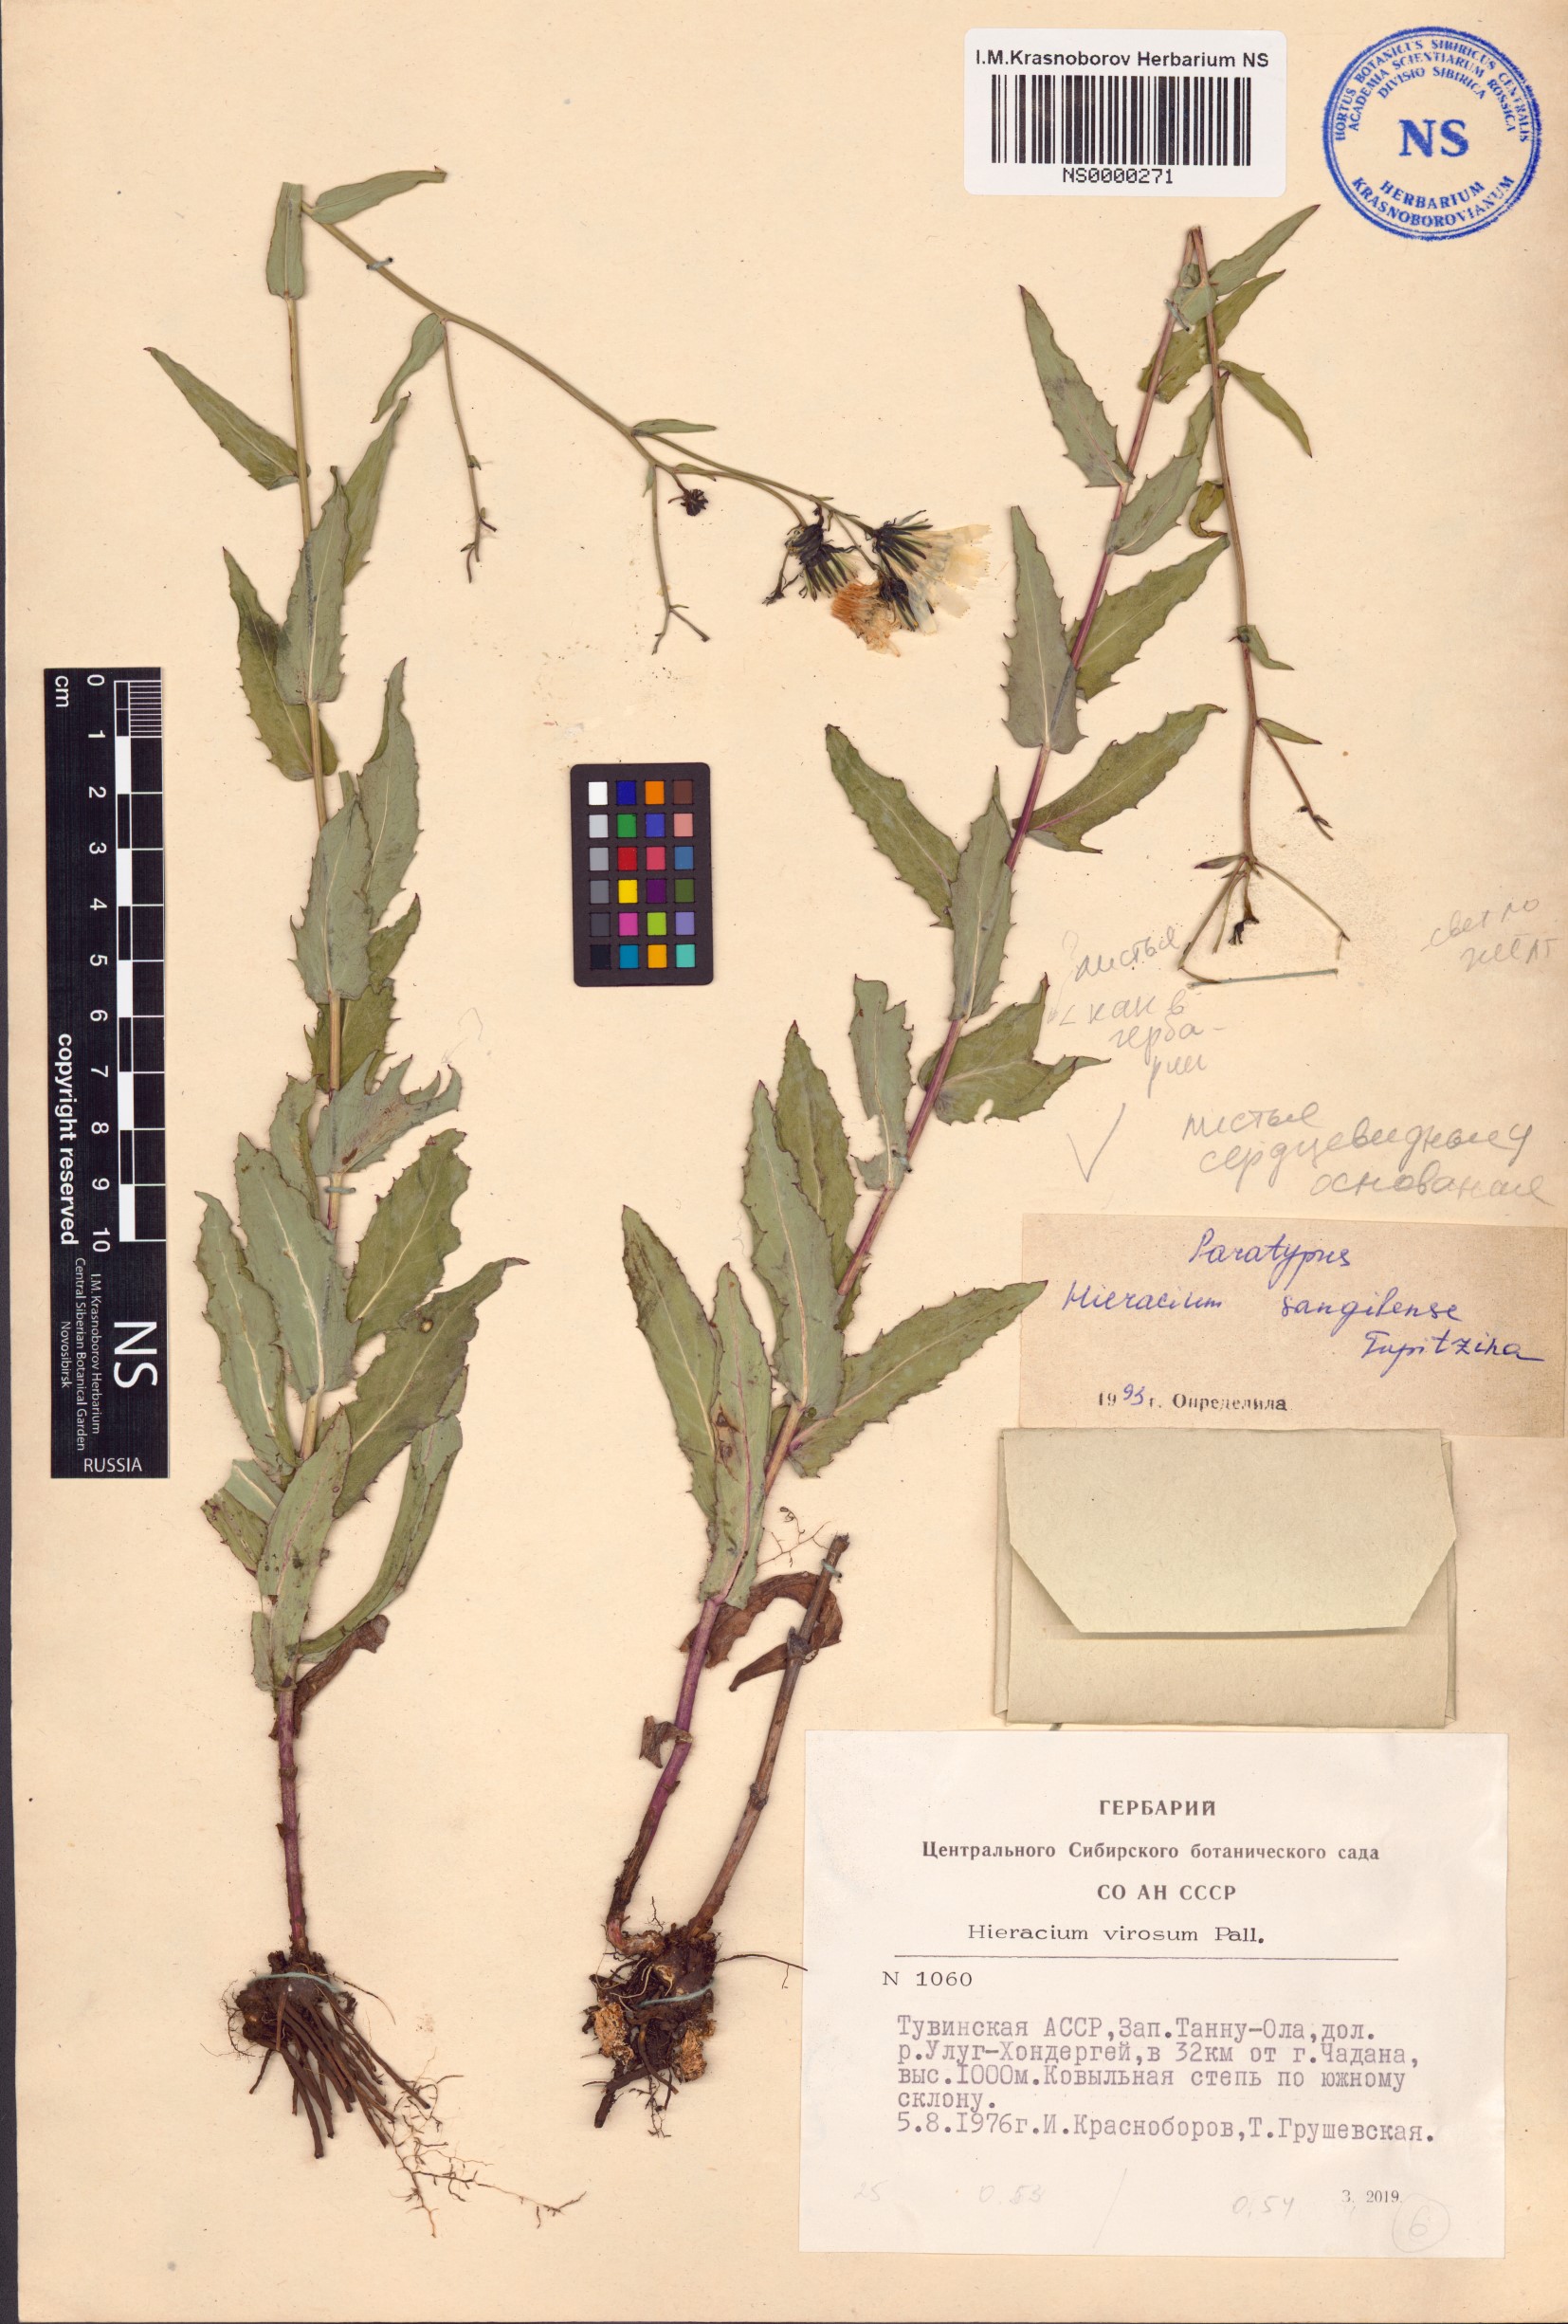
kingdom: Plantae
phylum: Tracheophyta
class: Magnoliopsida
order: Asterales
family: Asteraceae
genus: Hieracium
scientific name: Hieracium sangilense
